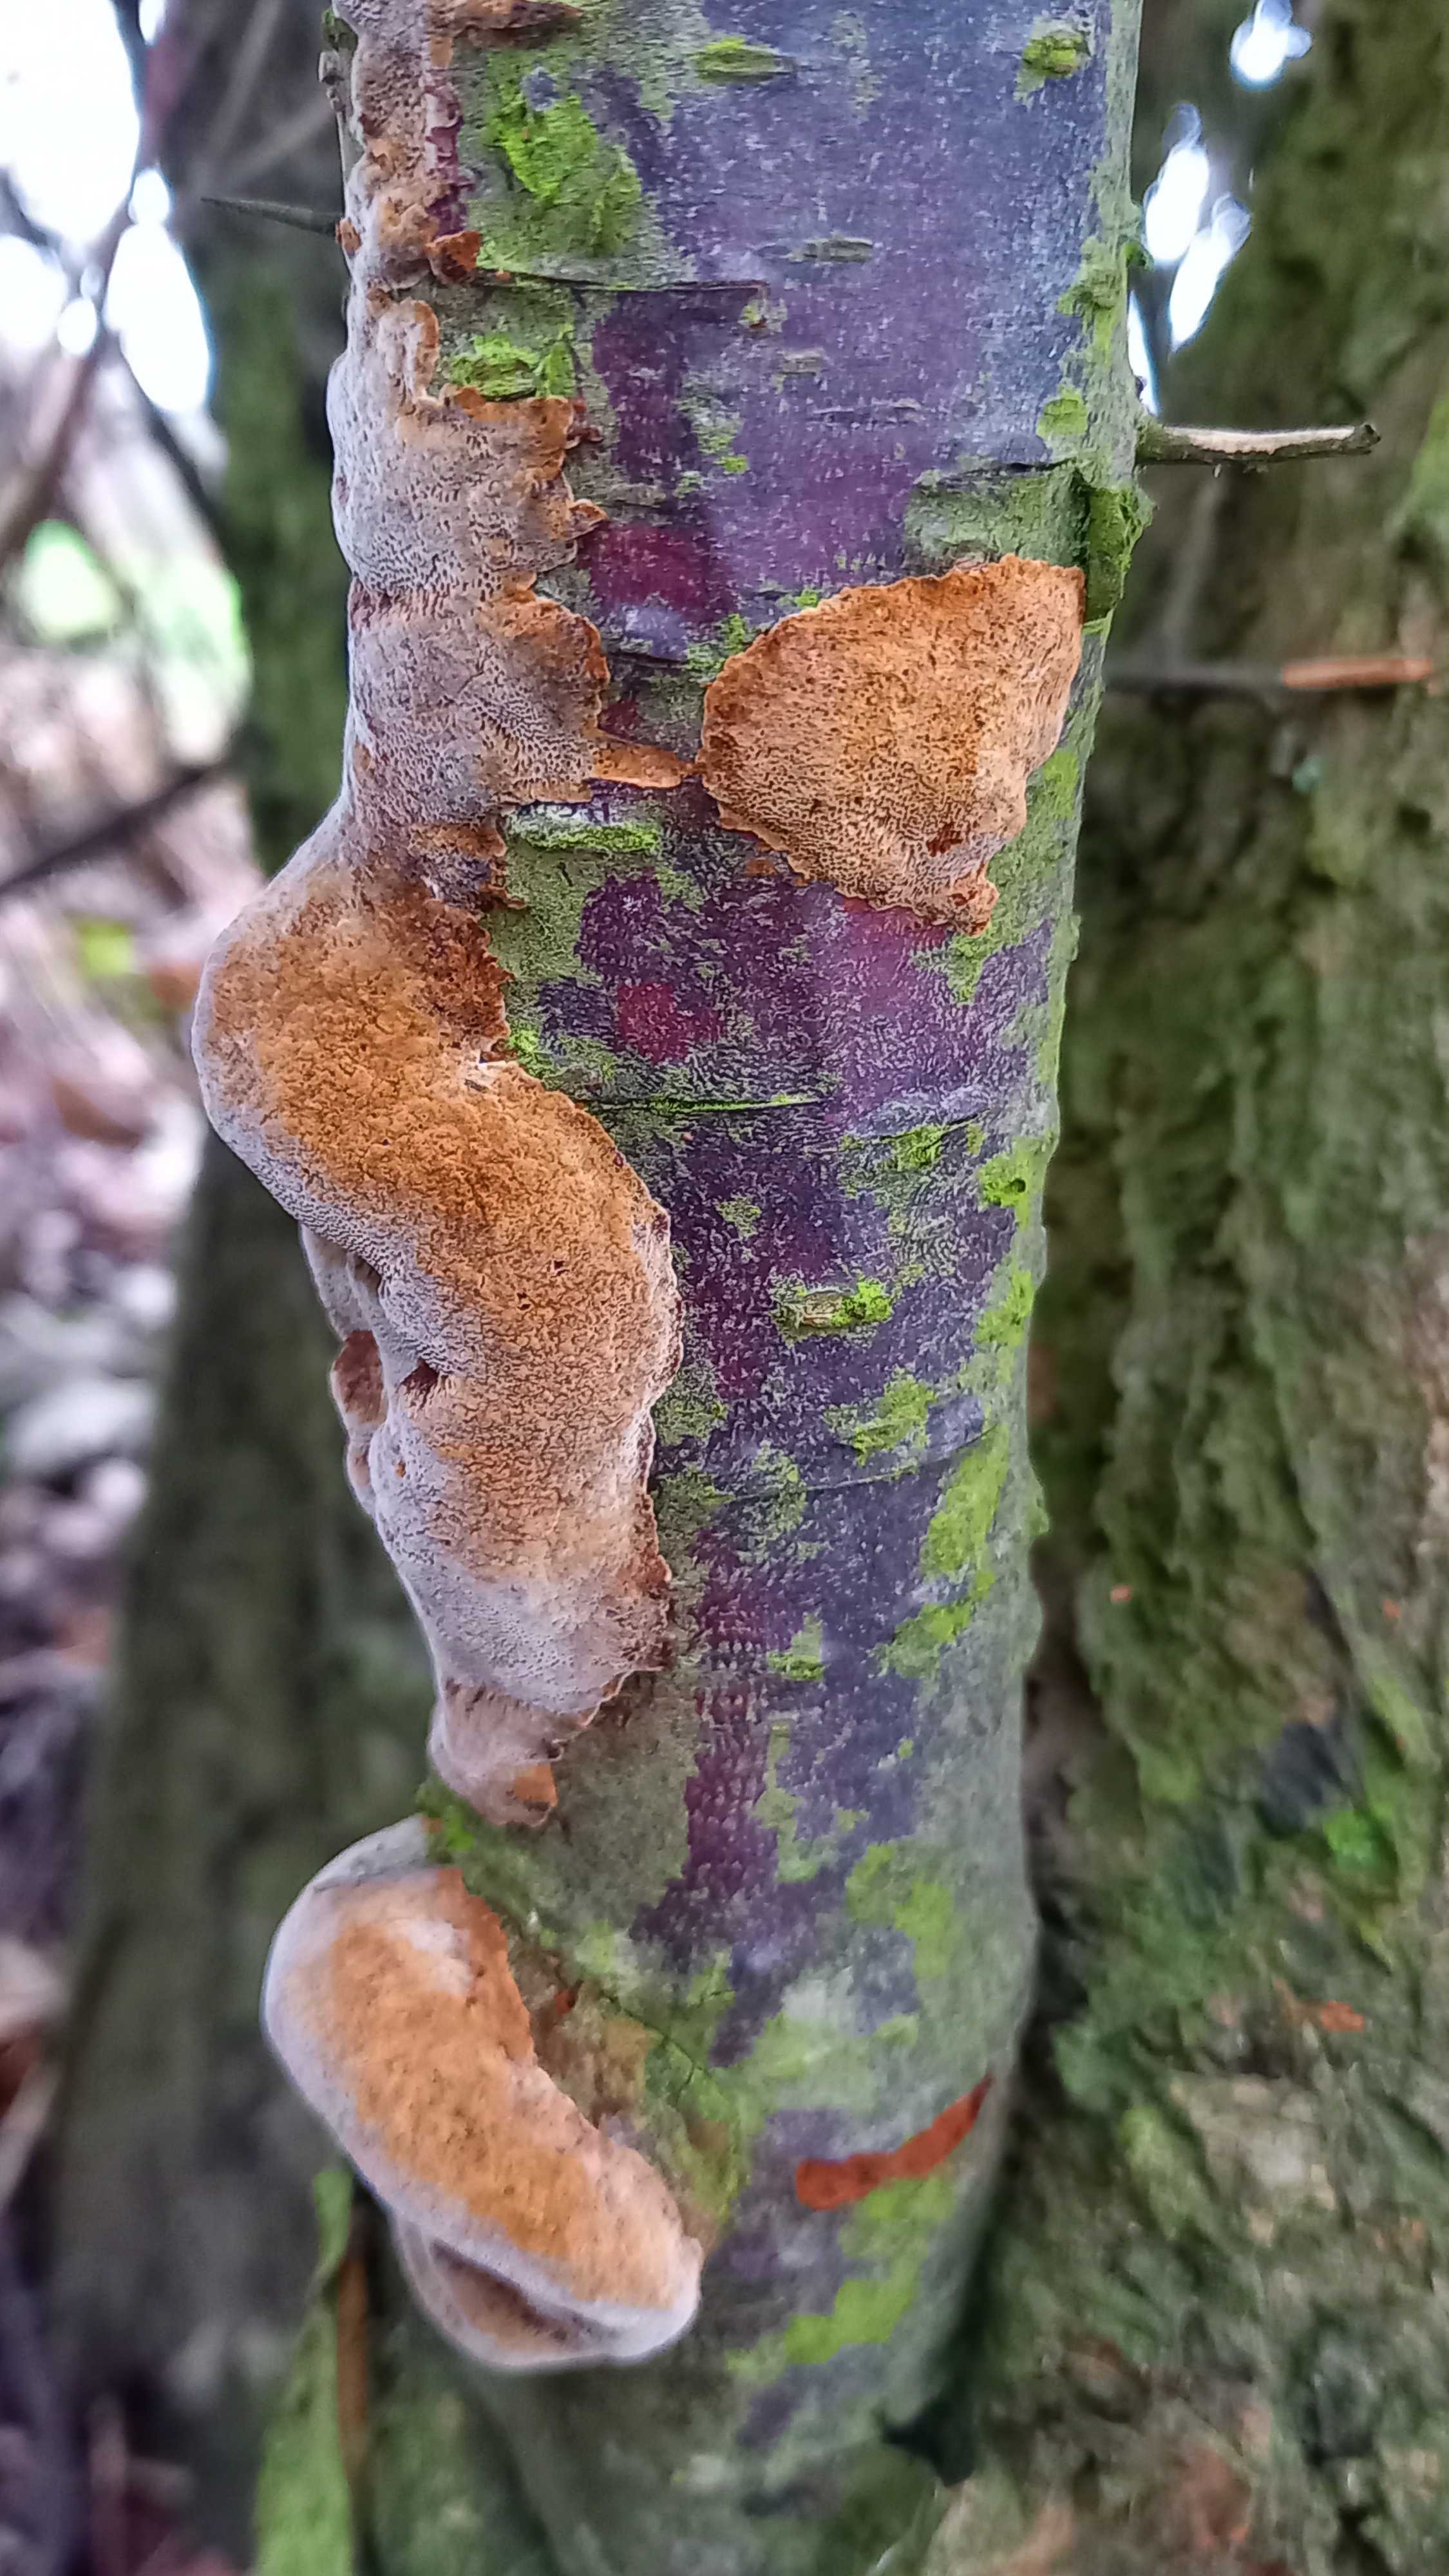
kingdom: Fungi
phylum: Basidiomycota
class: Agaricomycetes
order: Hymenochaetales
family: Hymenochaetaceae
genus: Phellinus
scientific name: Phellinus pomaceus
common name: blomme-ildporesvamp
